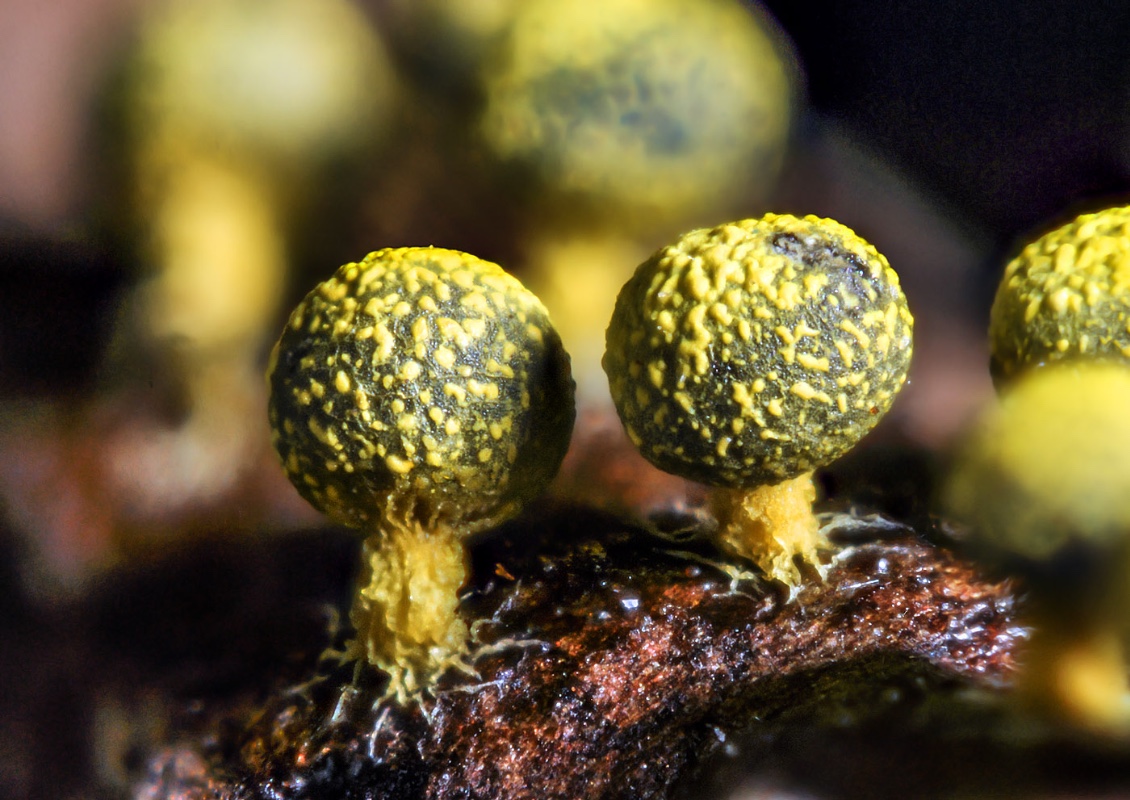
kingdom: Protozoa
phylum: Mycetozoa
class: Myxomycetes
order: Physarales
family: Physaraceae
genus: Physarum
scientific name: Physarum sulphureum
